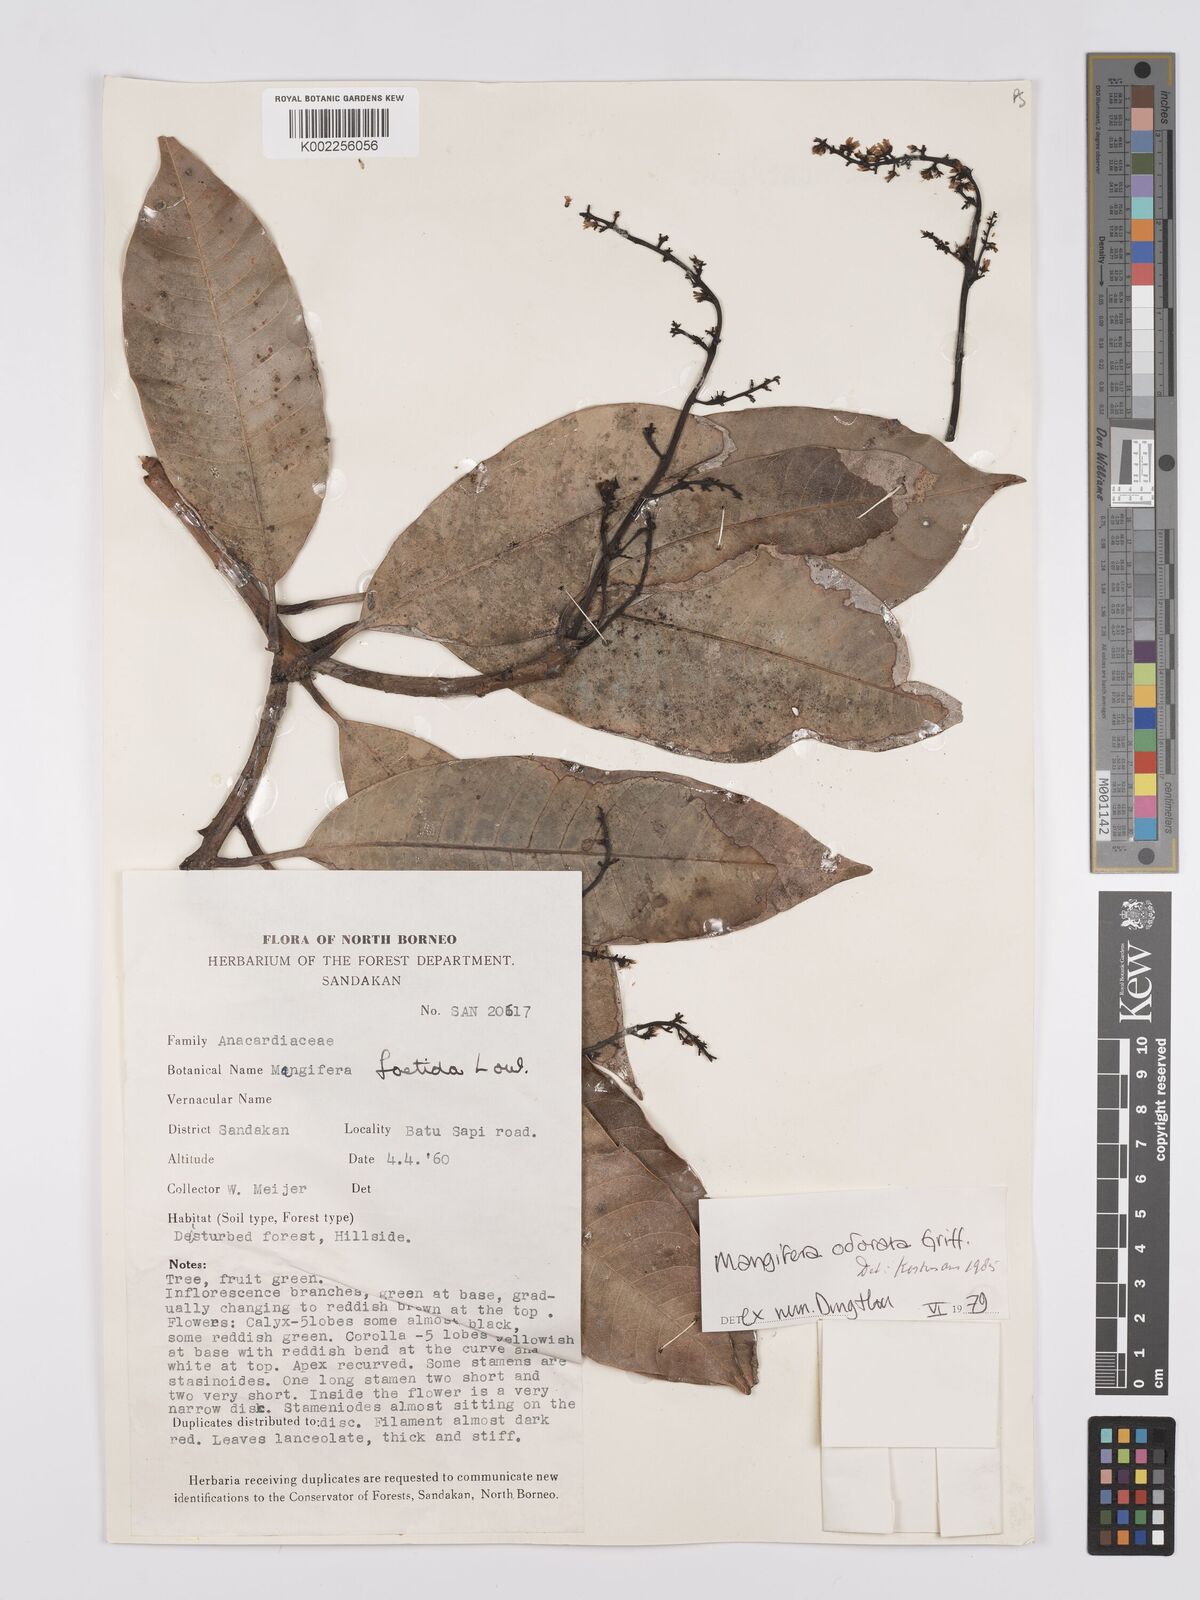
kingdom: Plantae
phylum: Tracheophyta
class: Magnoliopsida
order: Sapindales
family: Anacardiaceae
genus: Mangifera
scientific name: Mangifera odorata
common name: Saipan mango
